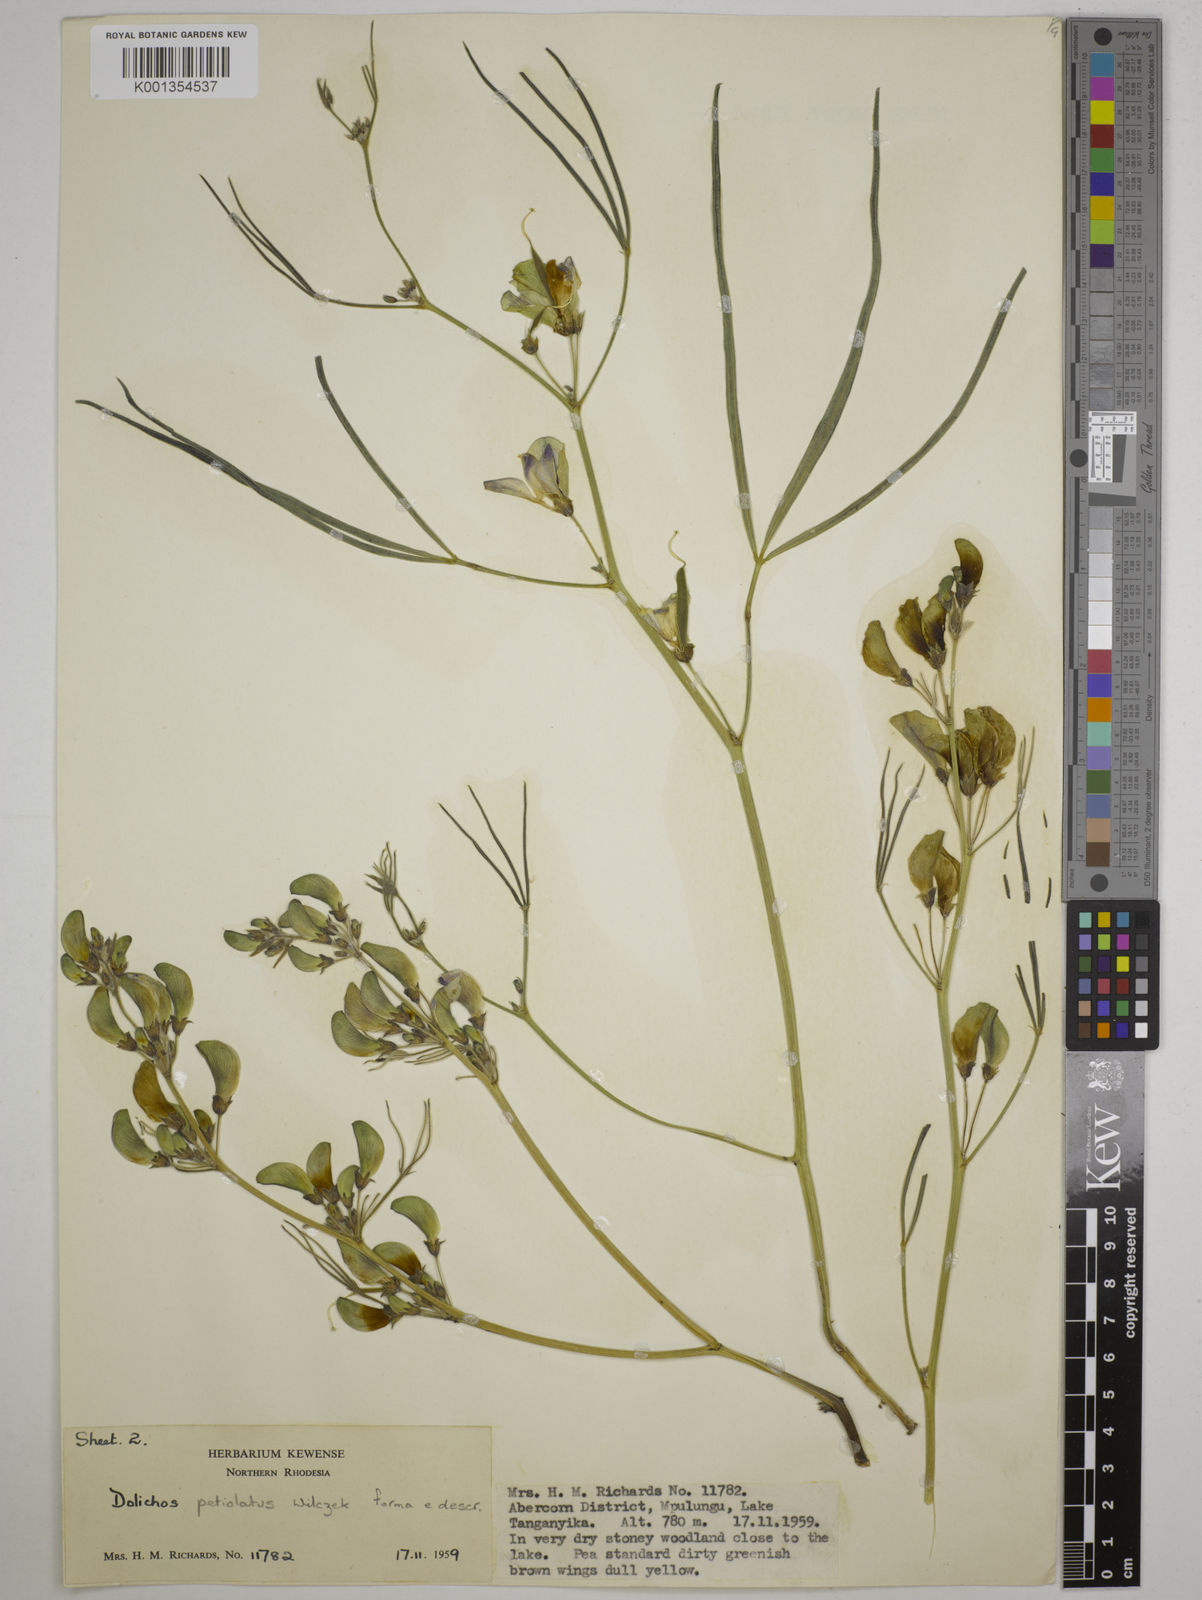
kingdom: Plantae
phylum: Tracheophyta
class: Magnoliopsida
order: Fabales
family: Fabaceae
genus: Dolichos
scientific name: Dolichos petiolatus
